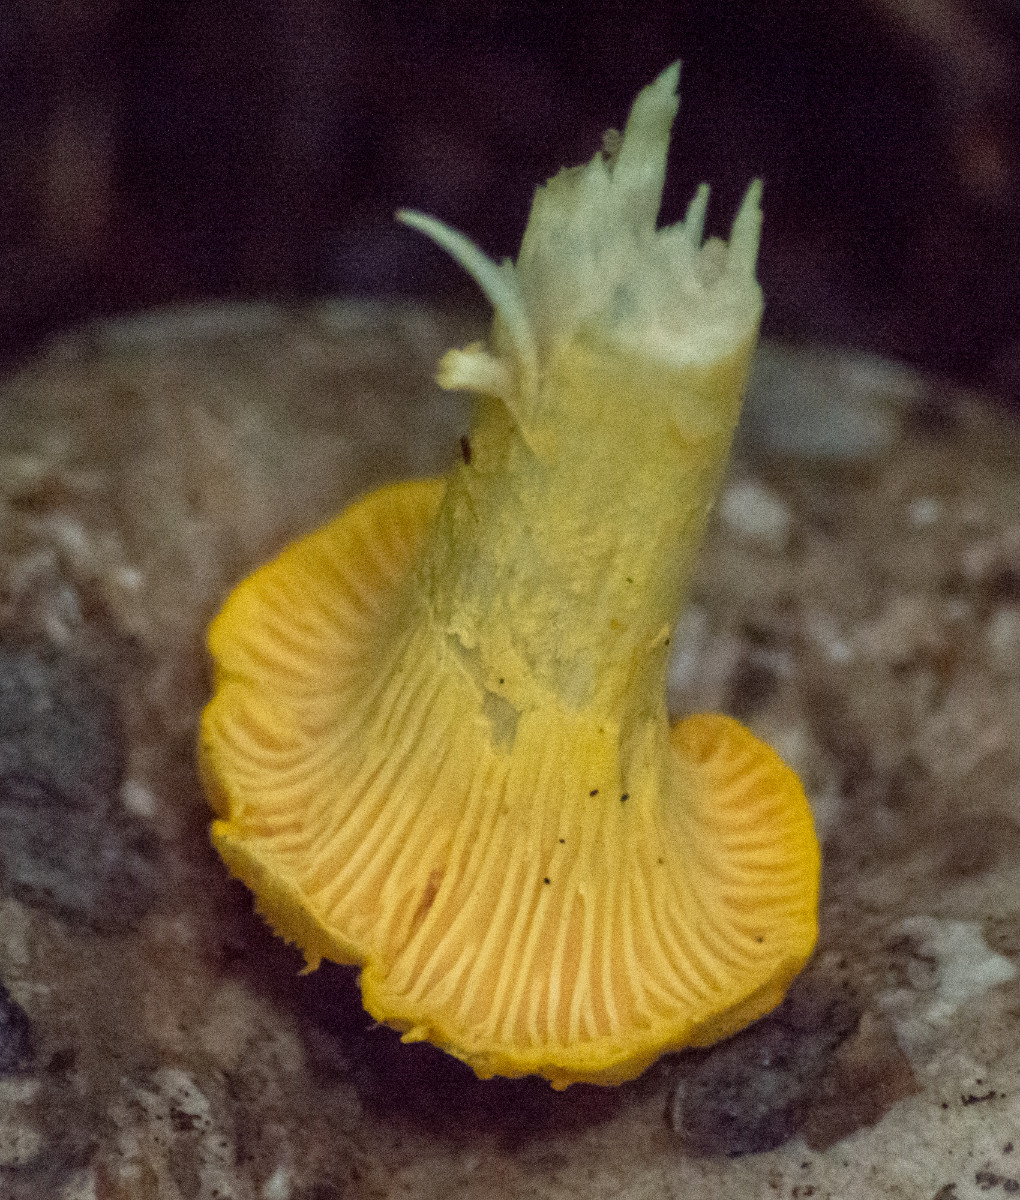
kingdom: Fungi
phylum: Basidiomycota
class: Agaricomycetes
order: Cantharellales
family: Hydnaceae
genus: Cantharellus
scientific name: Cantharellus cibarius
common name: almindelig kantarel
